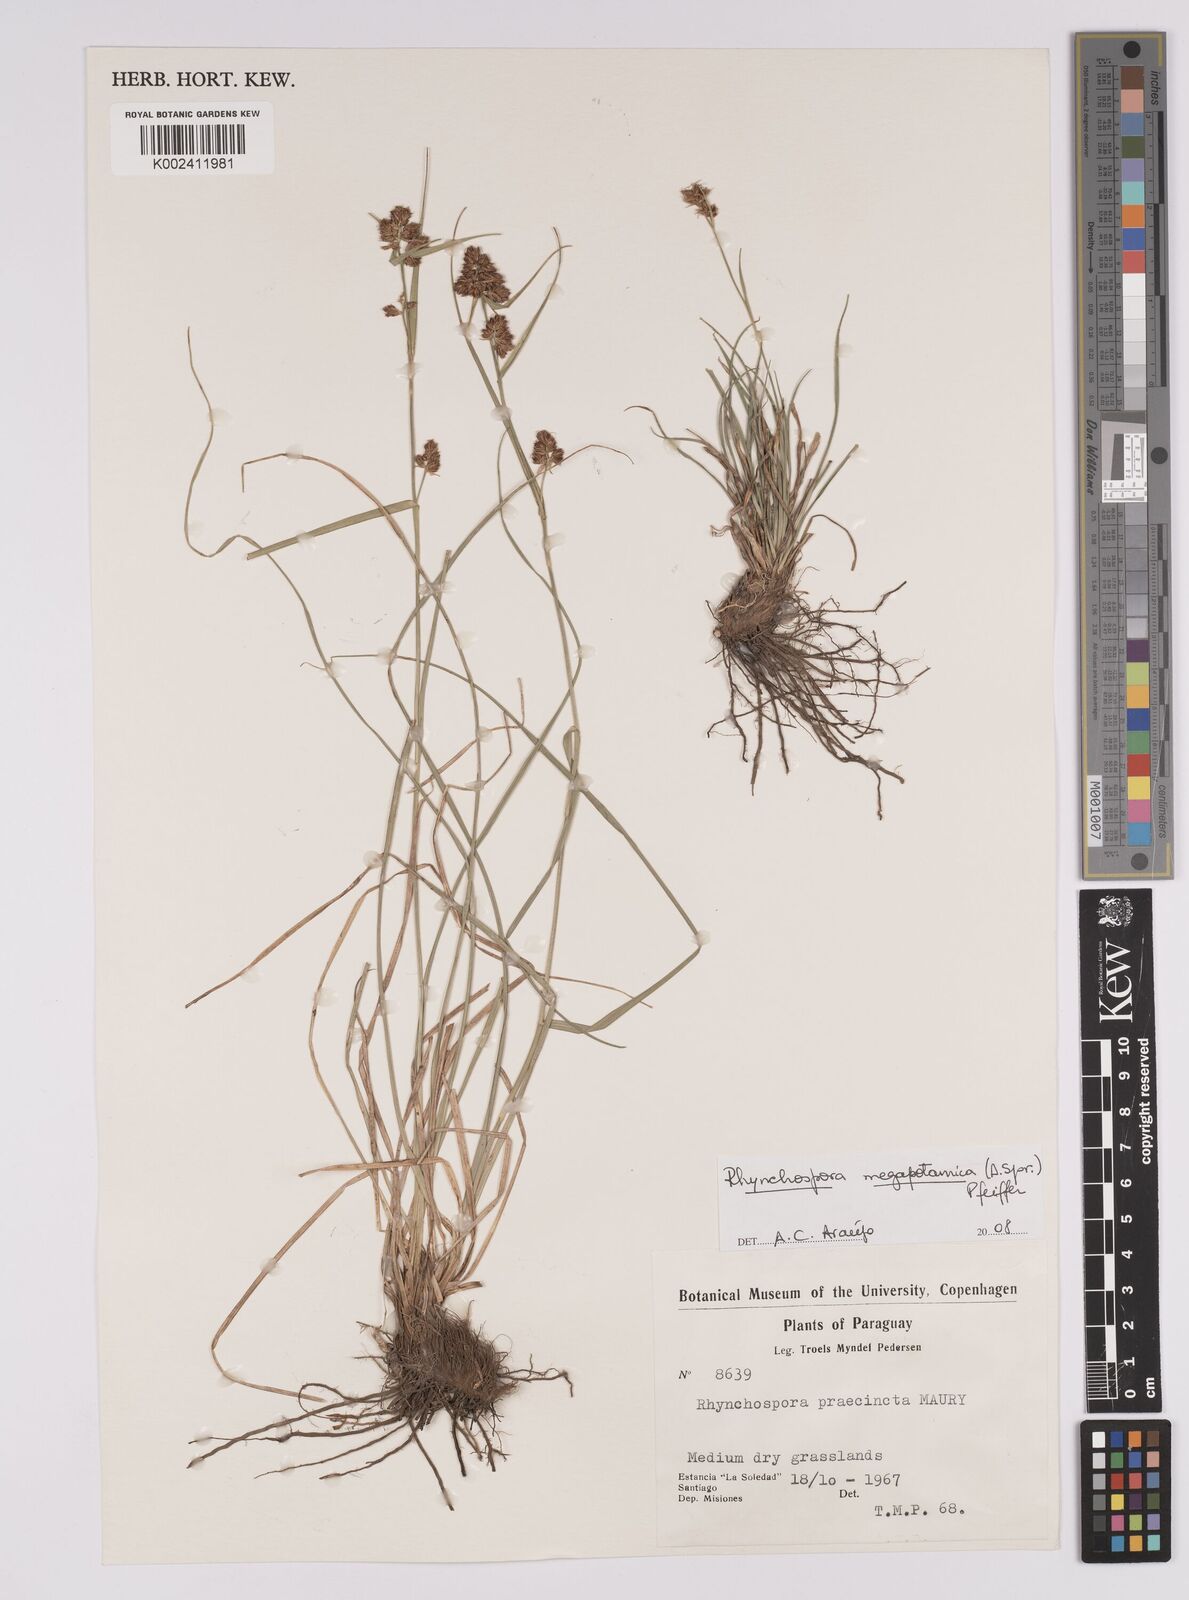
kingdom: Plantae
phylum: Tracheophyta
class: Liliopsida
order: Poales
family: Cyperaceae
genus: Rhynchospora
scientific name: Rhynchospora megalocarpa
